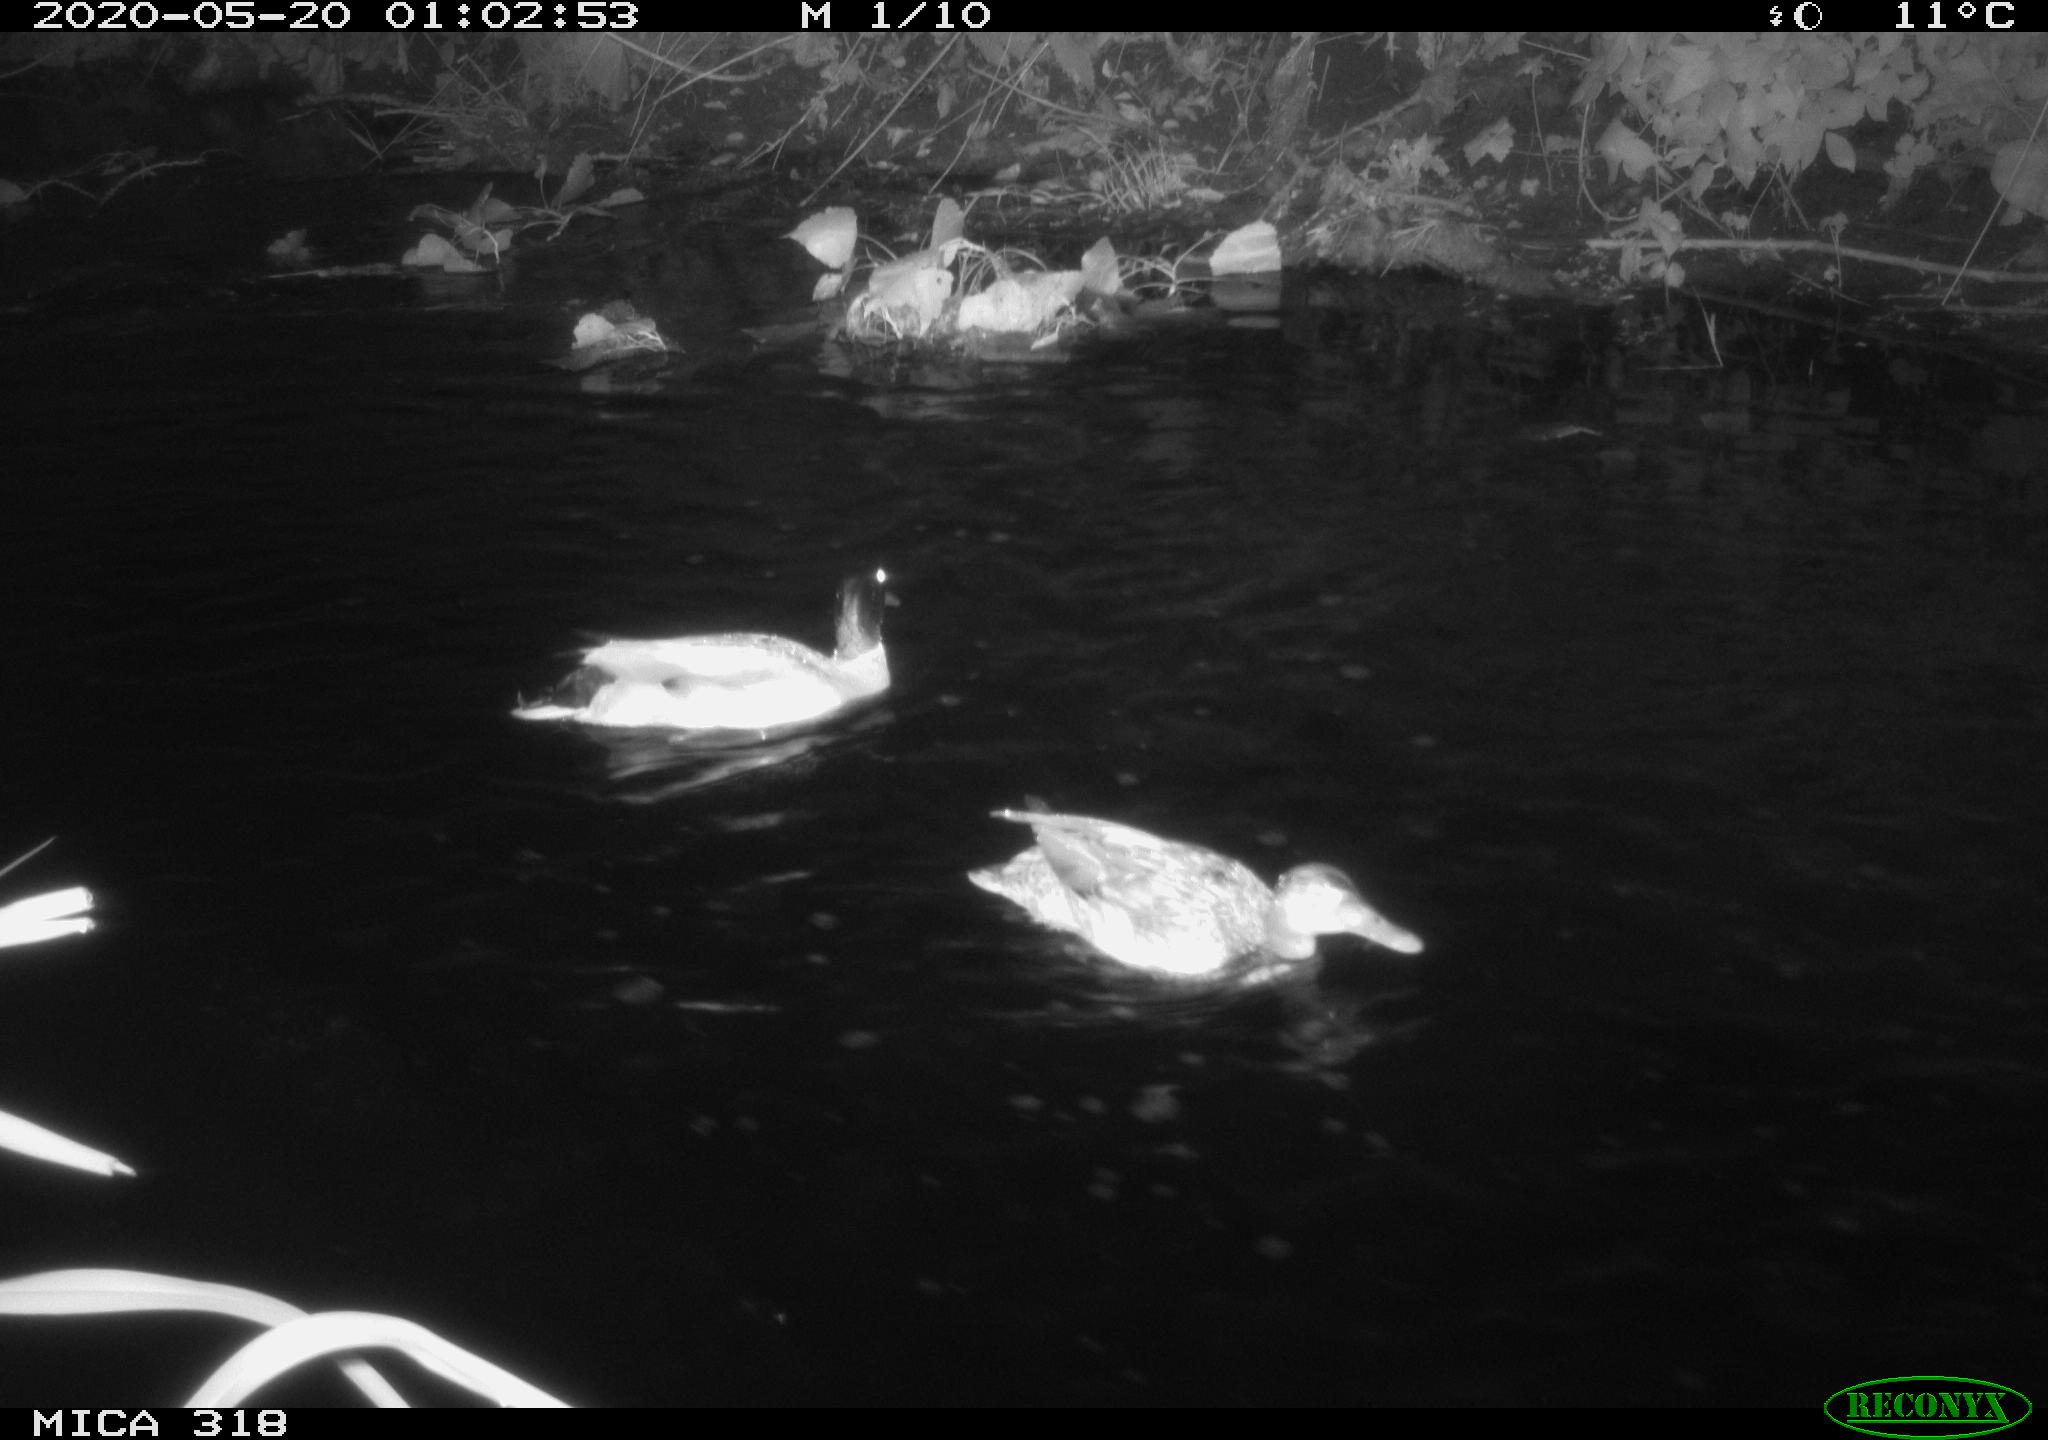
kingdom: Animalia
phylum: Chordata
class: Aves
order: Anseriformes
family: Anatidae
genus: Anas
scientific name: Anas platyrhynchos
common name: Mallard
